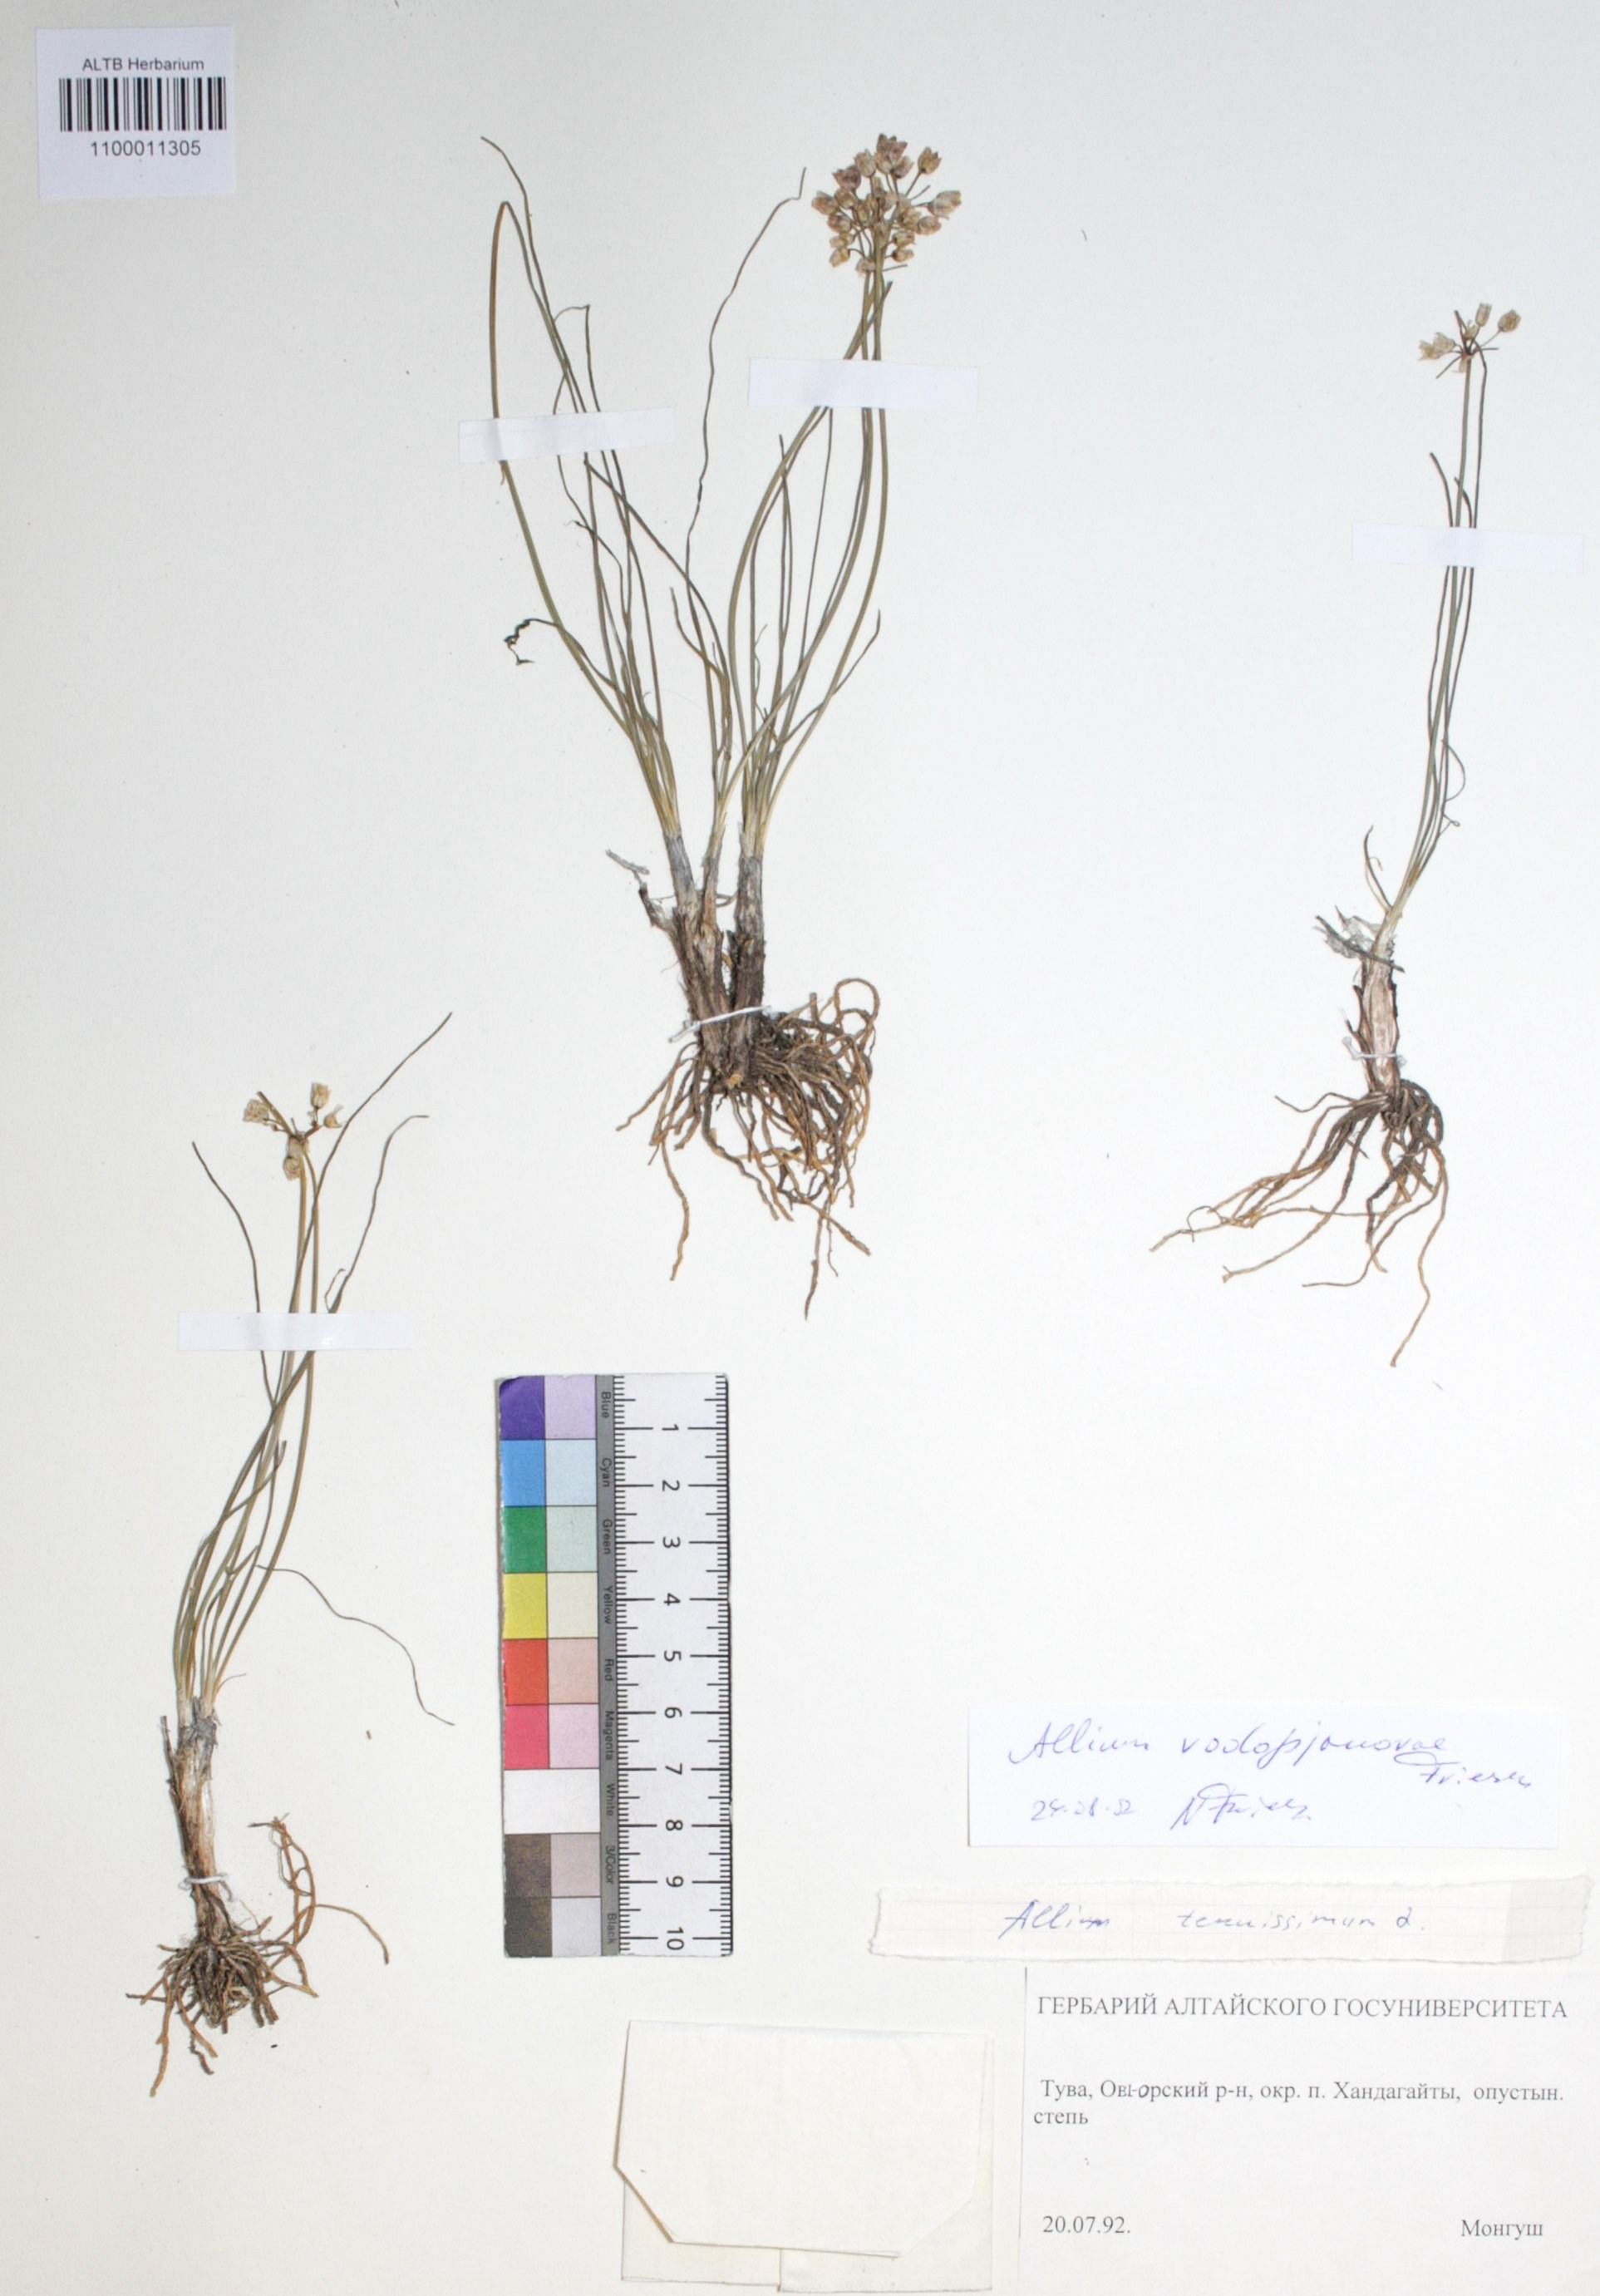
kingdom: Plantae
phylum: Tracheophyta
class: Liliopsida
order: Asparagales
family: Amaryllidaceae
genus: Allium
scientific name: Allium vodopjanovae
